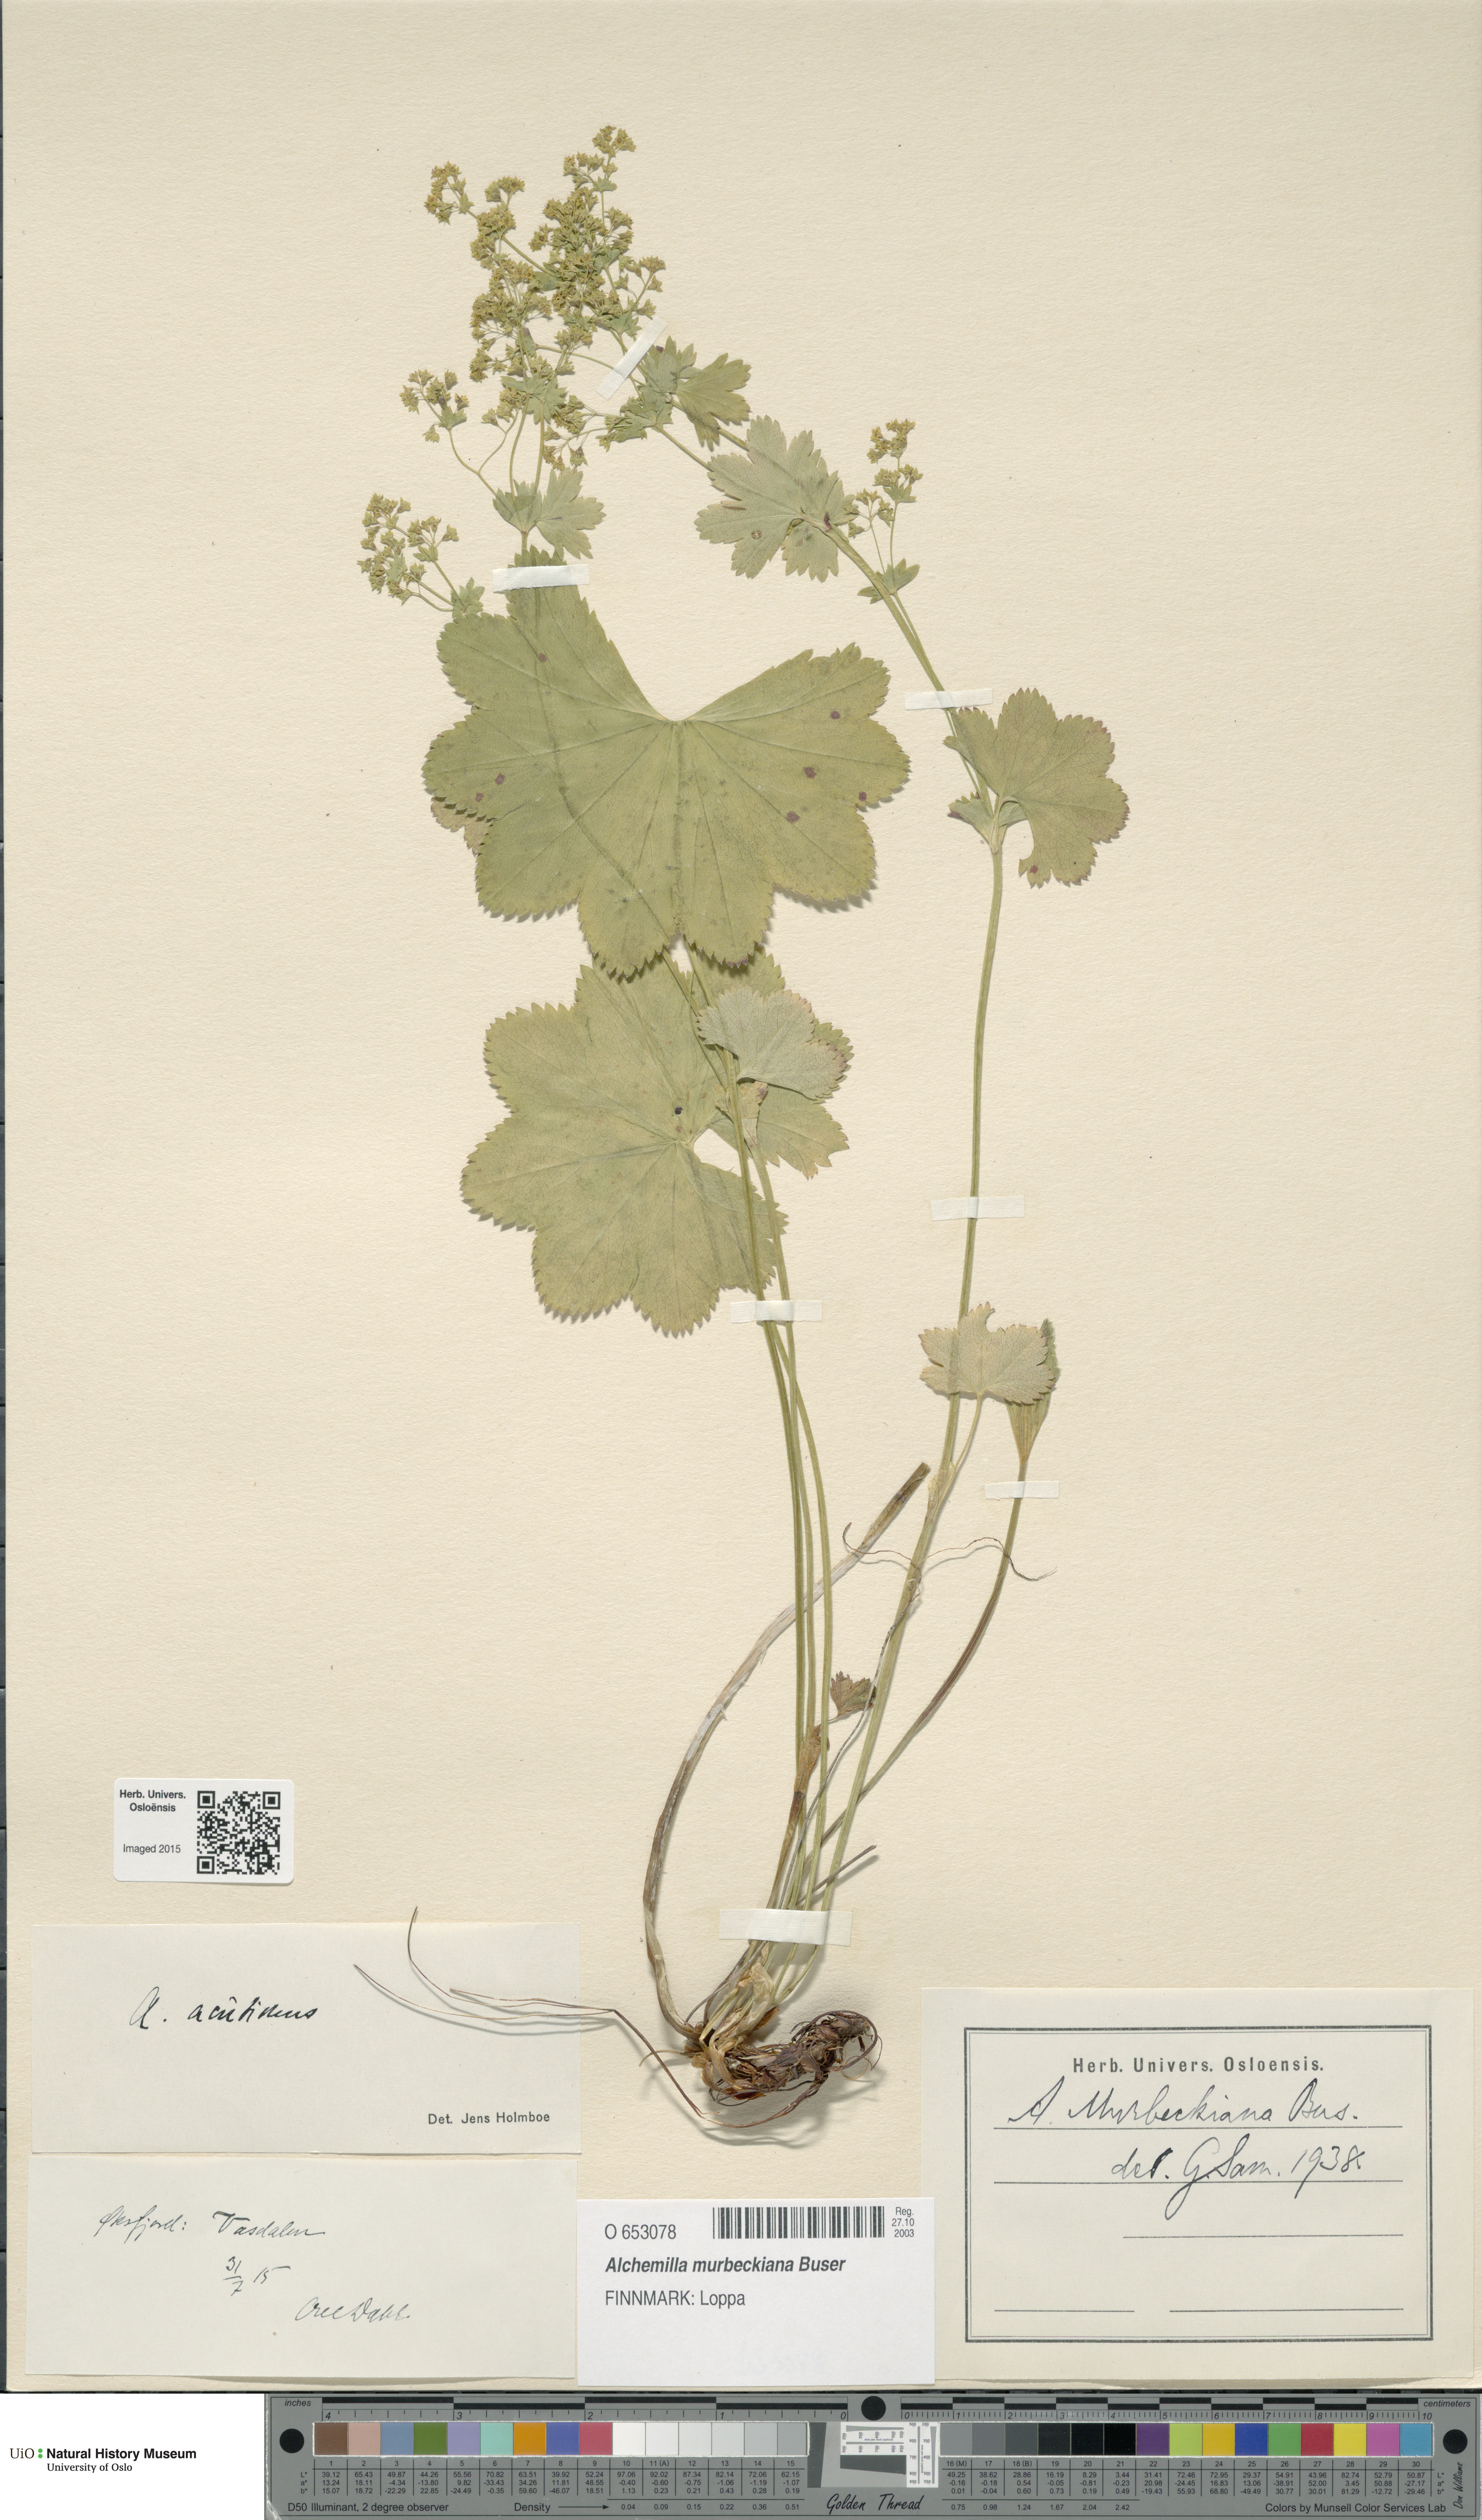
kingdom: Plantae
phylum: Tracheophyta
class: Magnoliopsida
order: Rosales
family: Rosaceae
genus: Alchemilla
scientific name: Alchemilla murbeckiana
